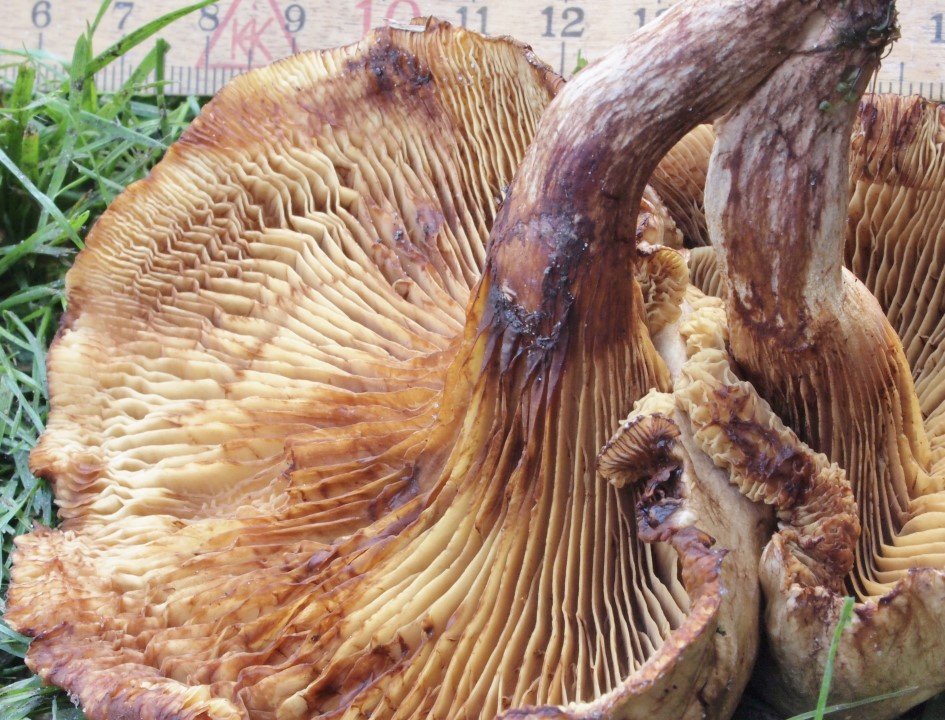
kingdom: Fungi
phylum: Basidiomycota
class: Agaricomycetes
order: Boletales
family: Paxillaceae
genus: Paxillus
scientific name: Paxillus rubicundulus
